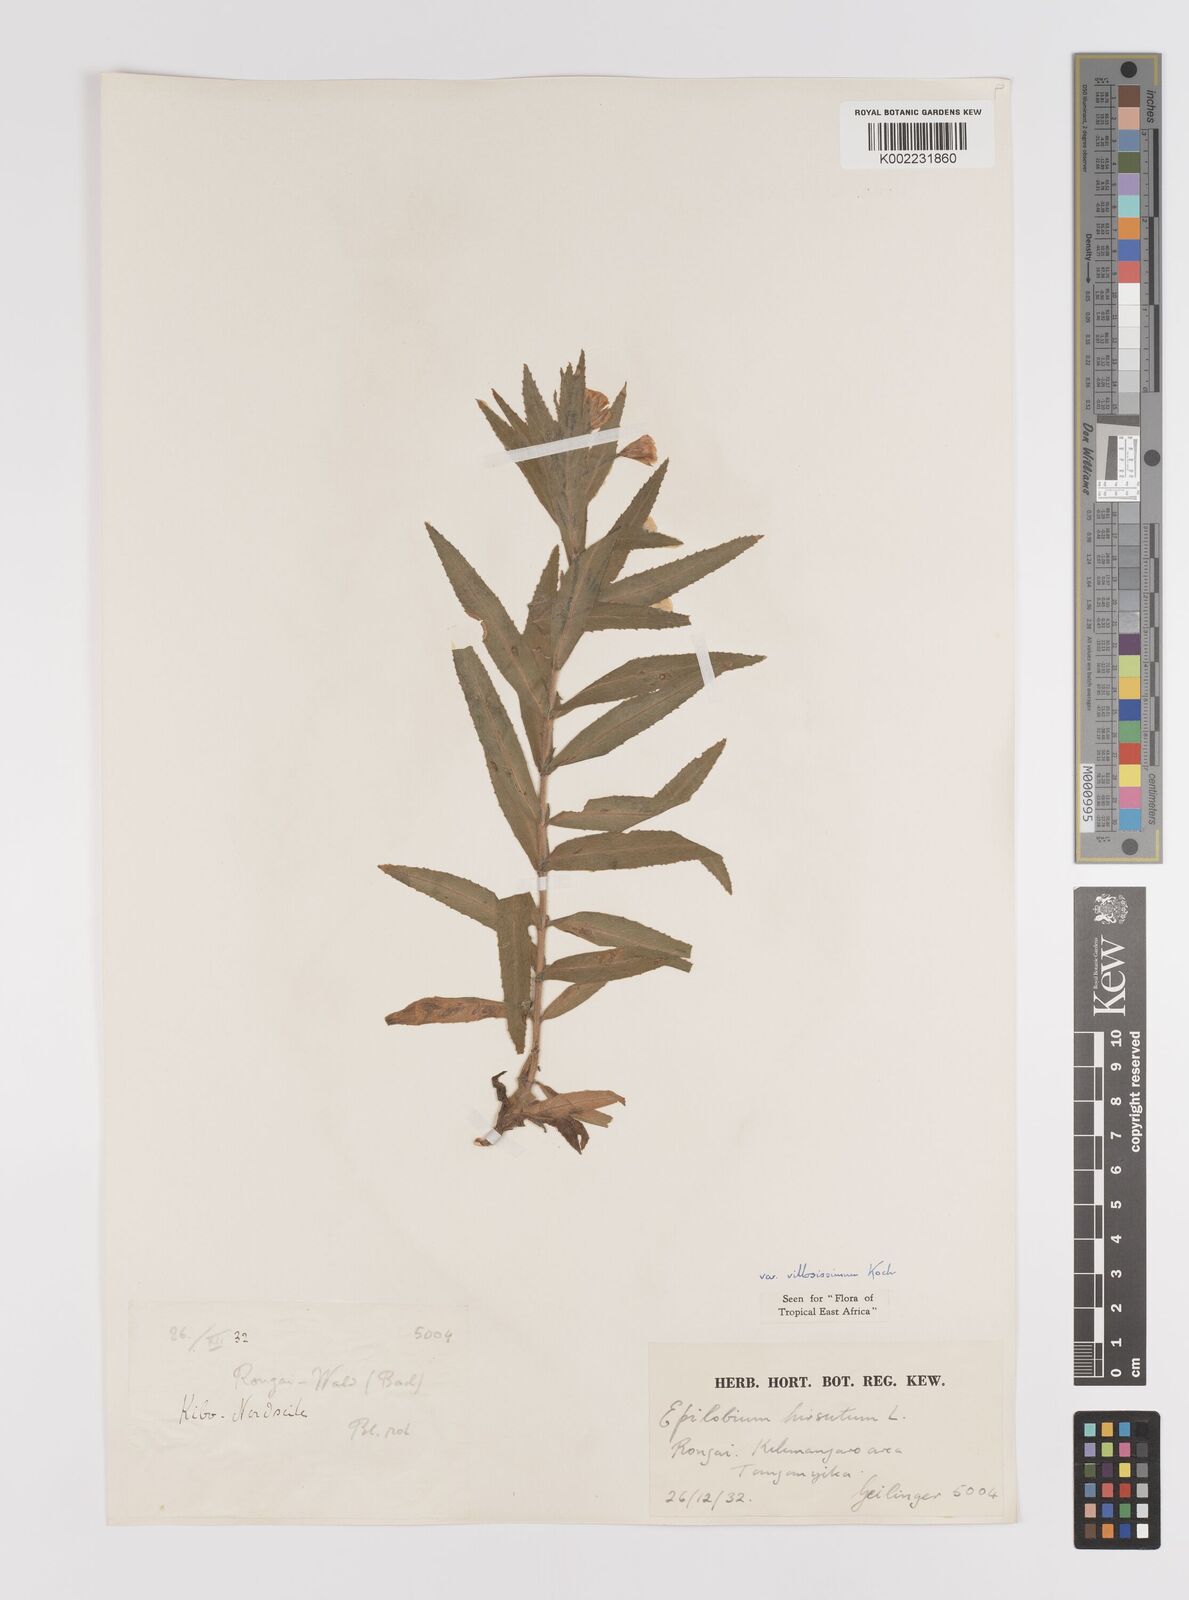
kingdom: Plantae
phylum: Tracheophyta
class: Magnoliopsida
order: Myrtales
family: Onagraceae
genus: Epilobium
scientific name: Epilobium hirsutum
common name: Great willowherb
